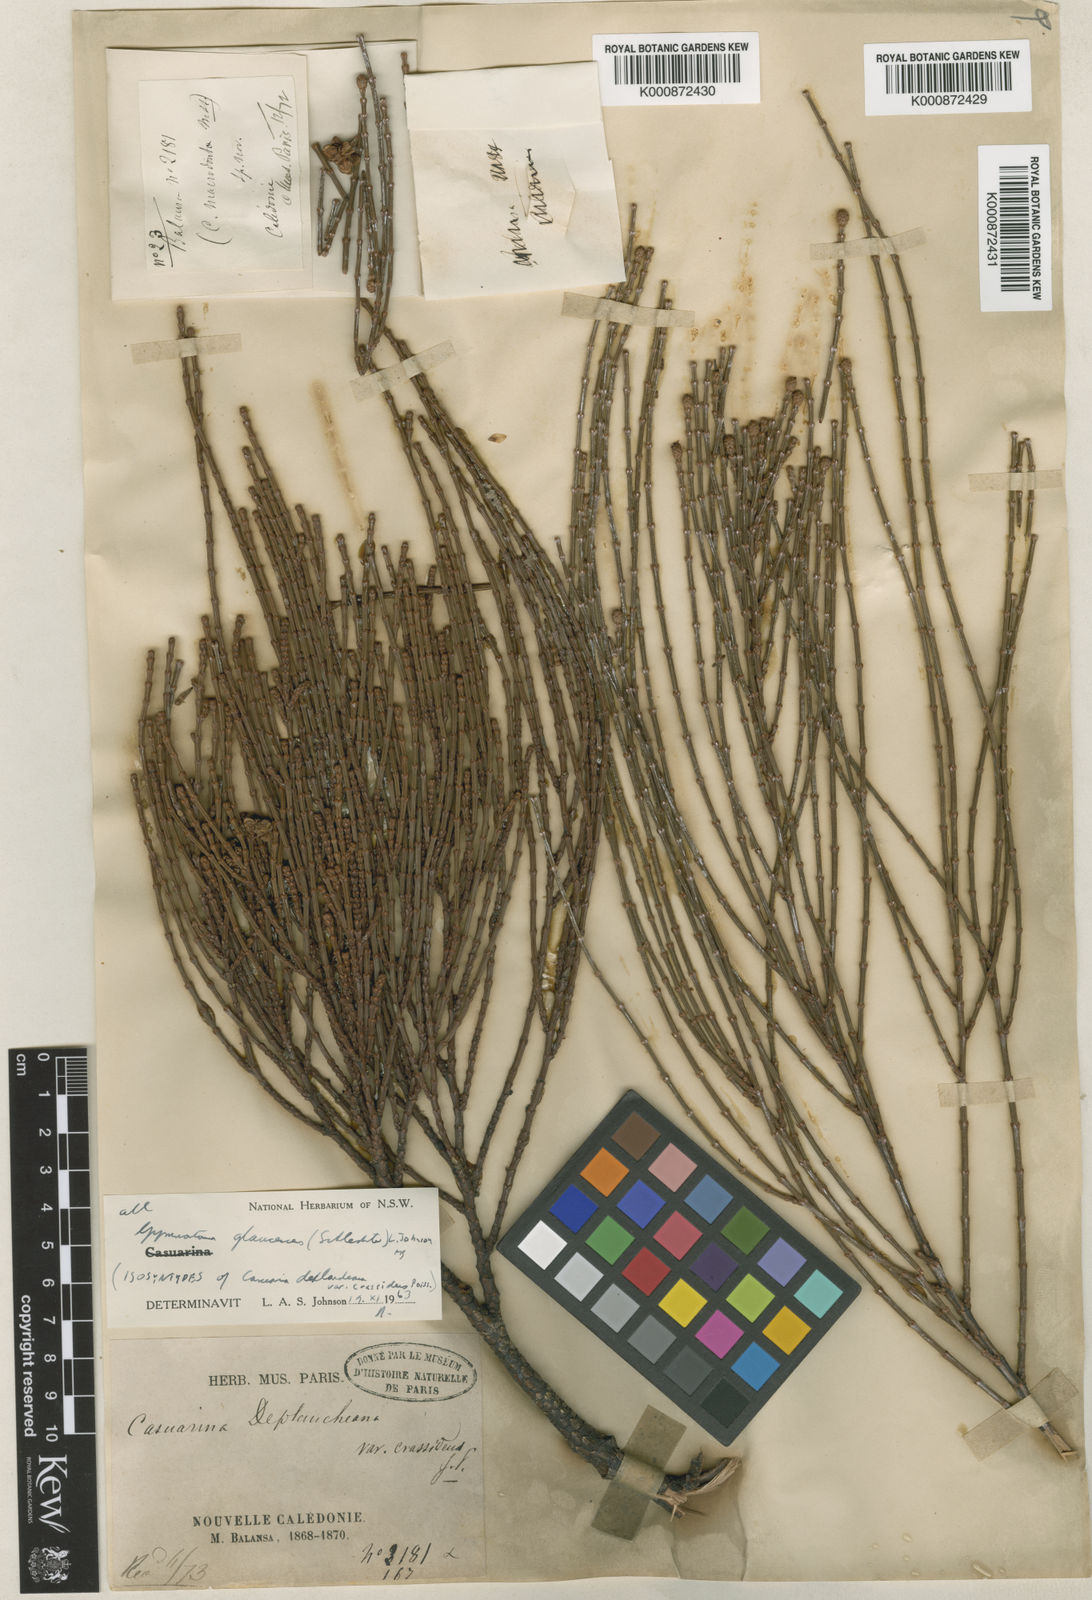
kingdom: Plantae
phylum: Tracheophyta
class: Magnoliopsida
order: Fagales
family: Casuarinaceae
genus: Gymnostoma
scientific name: Gymnostoma glaucescens
